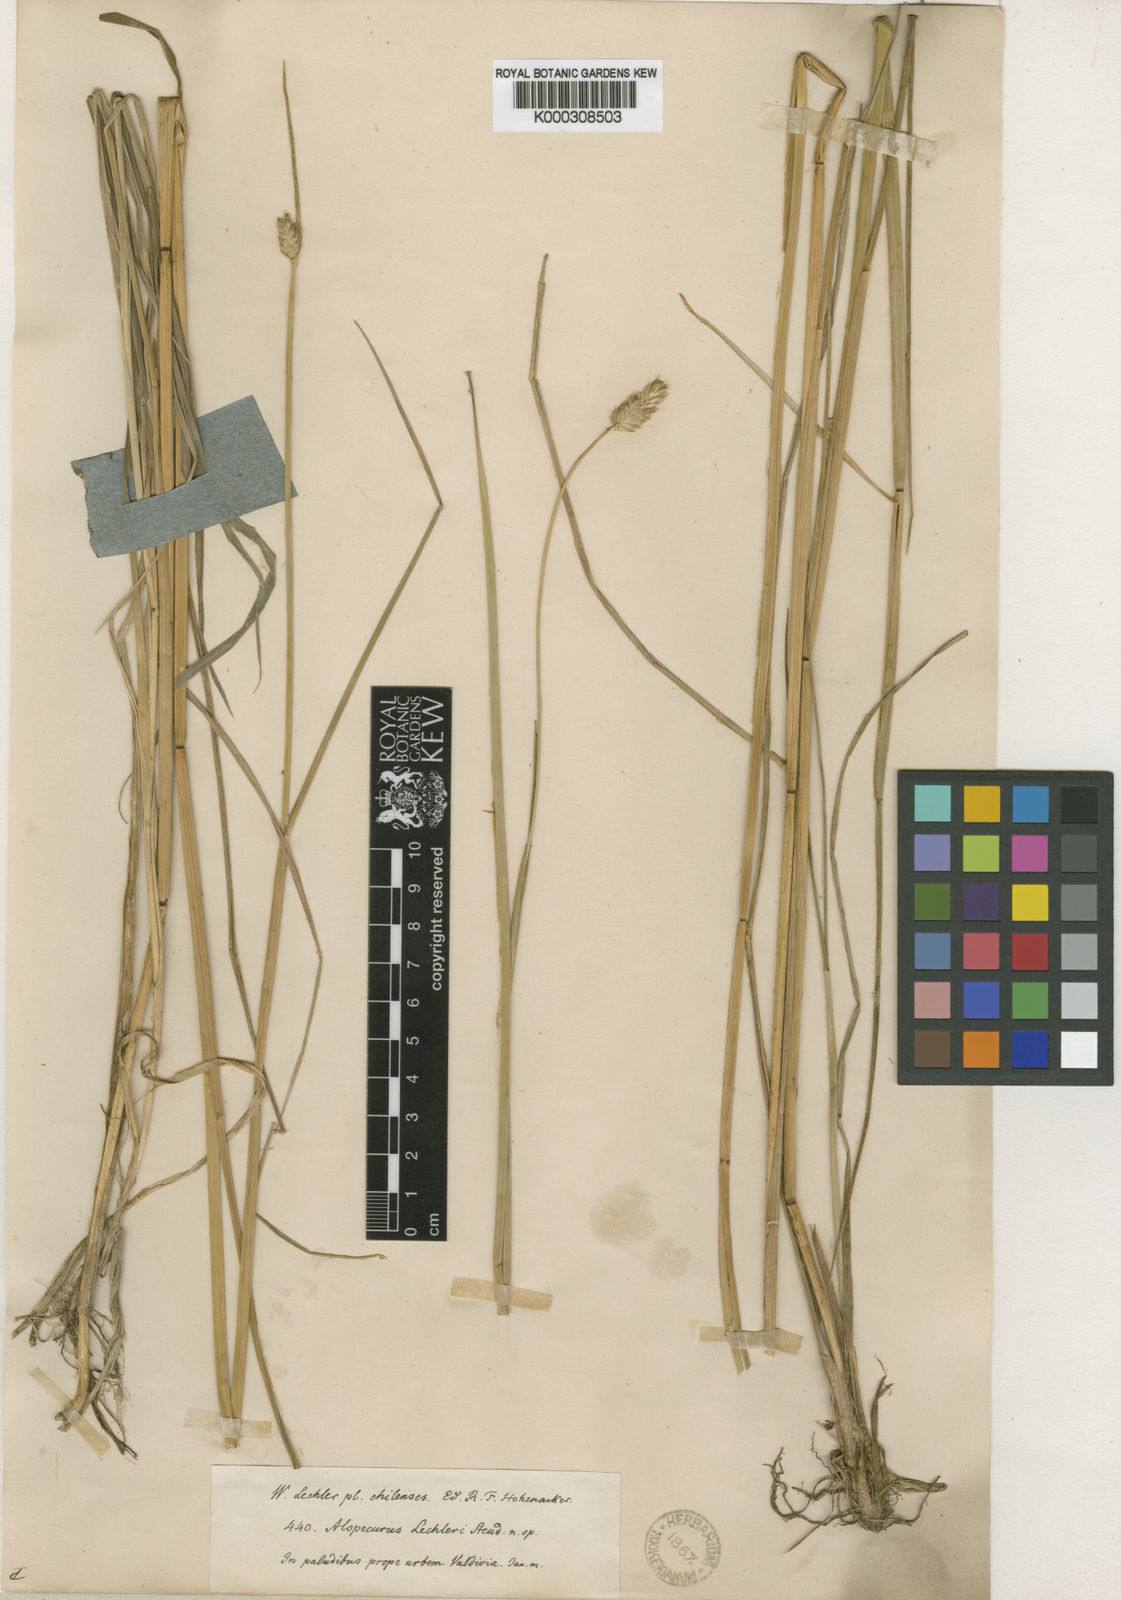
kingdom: Plantae
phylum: Tracheophyta
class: Liliopsida
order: Poales
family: Poaceae
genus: Alopecurus
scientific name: Alopecurus magellanicus
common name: Alpine foxtail
